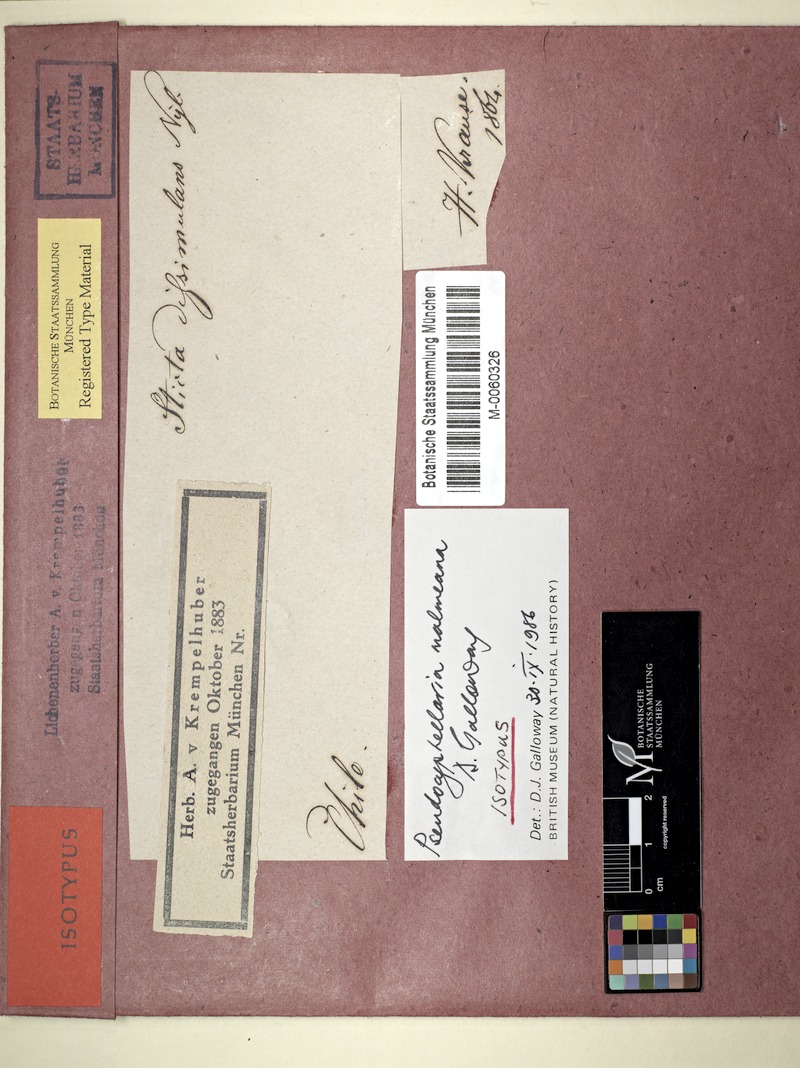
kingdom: Fungi
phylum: Ascomycota
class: Lecanoromycetes
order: Peltigerales
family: Lobariaceae
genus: Pseudocyphellaria
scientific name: Pseudocyphellaria malmeana
